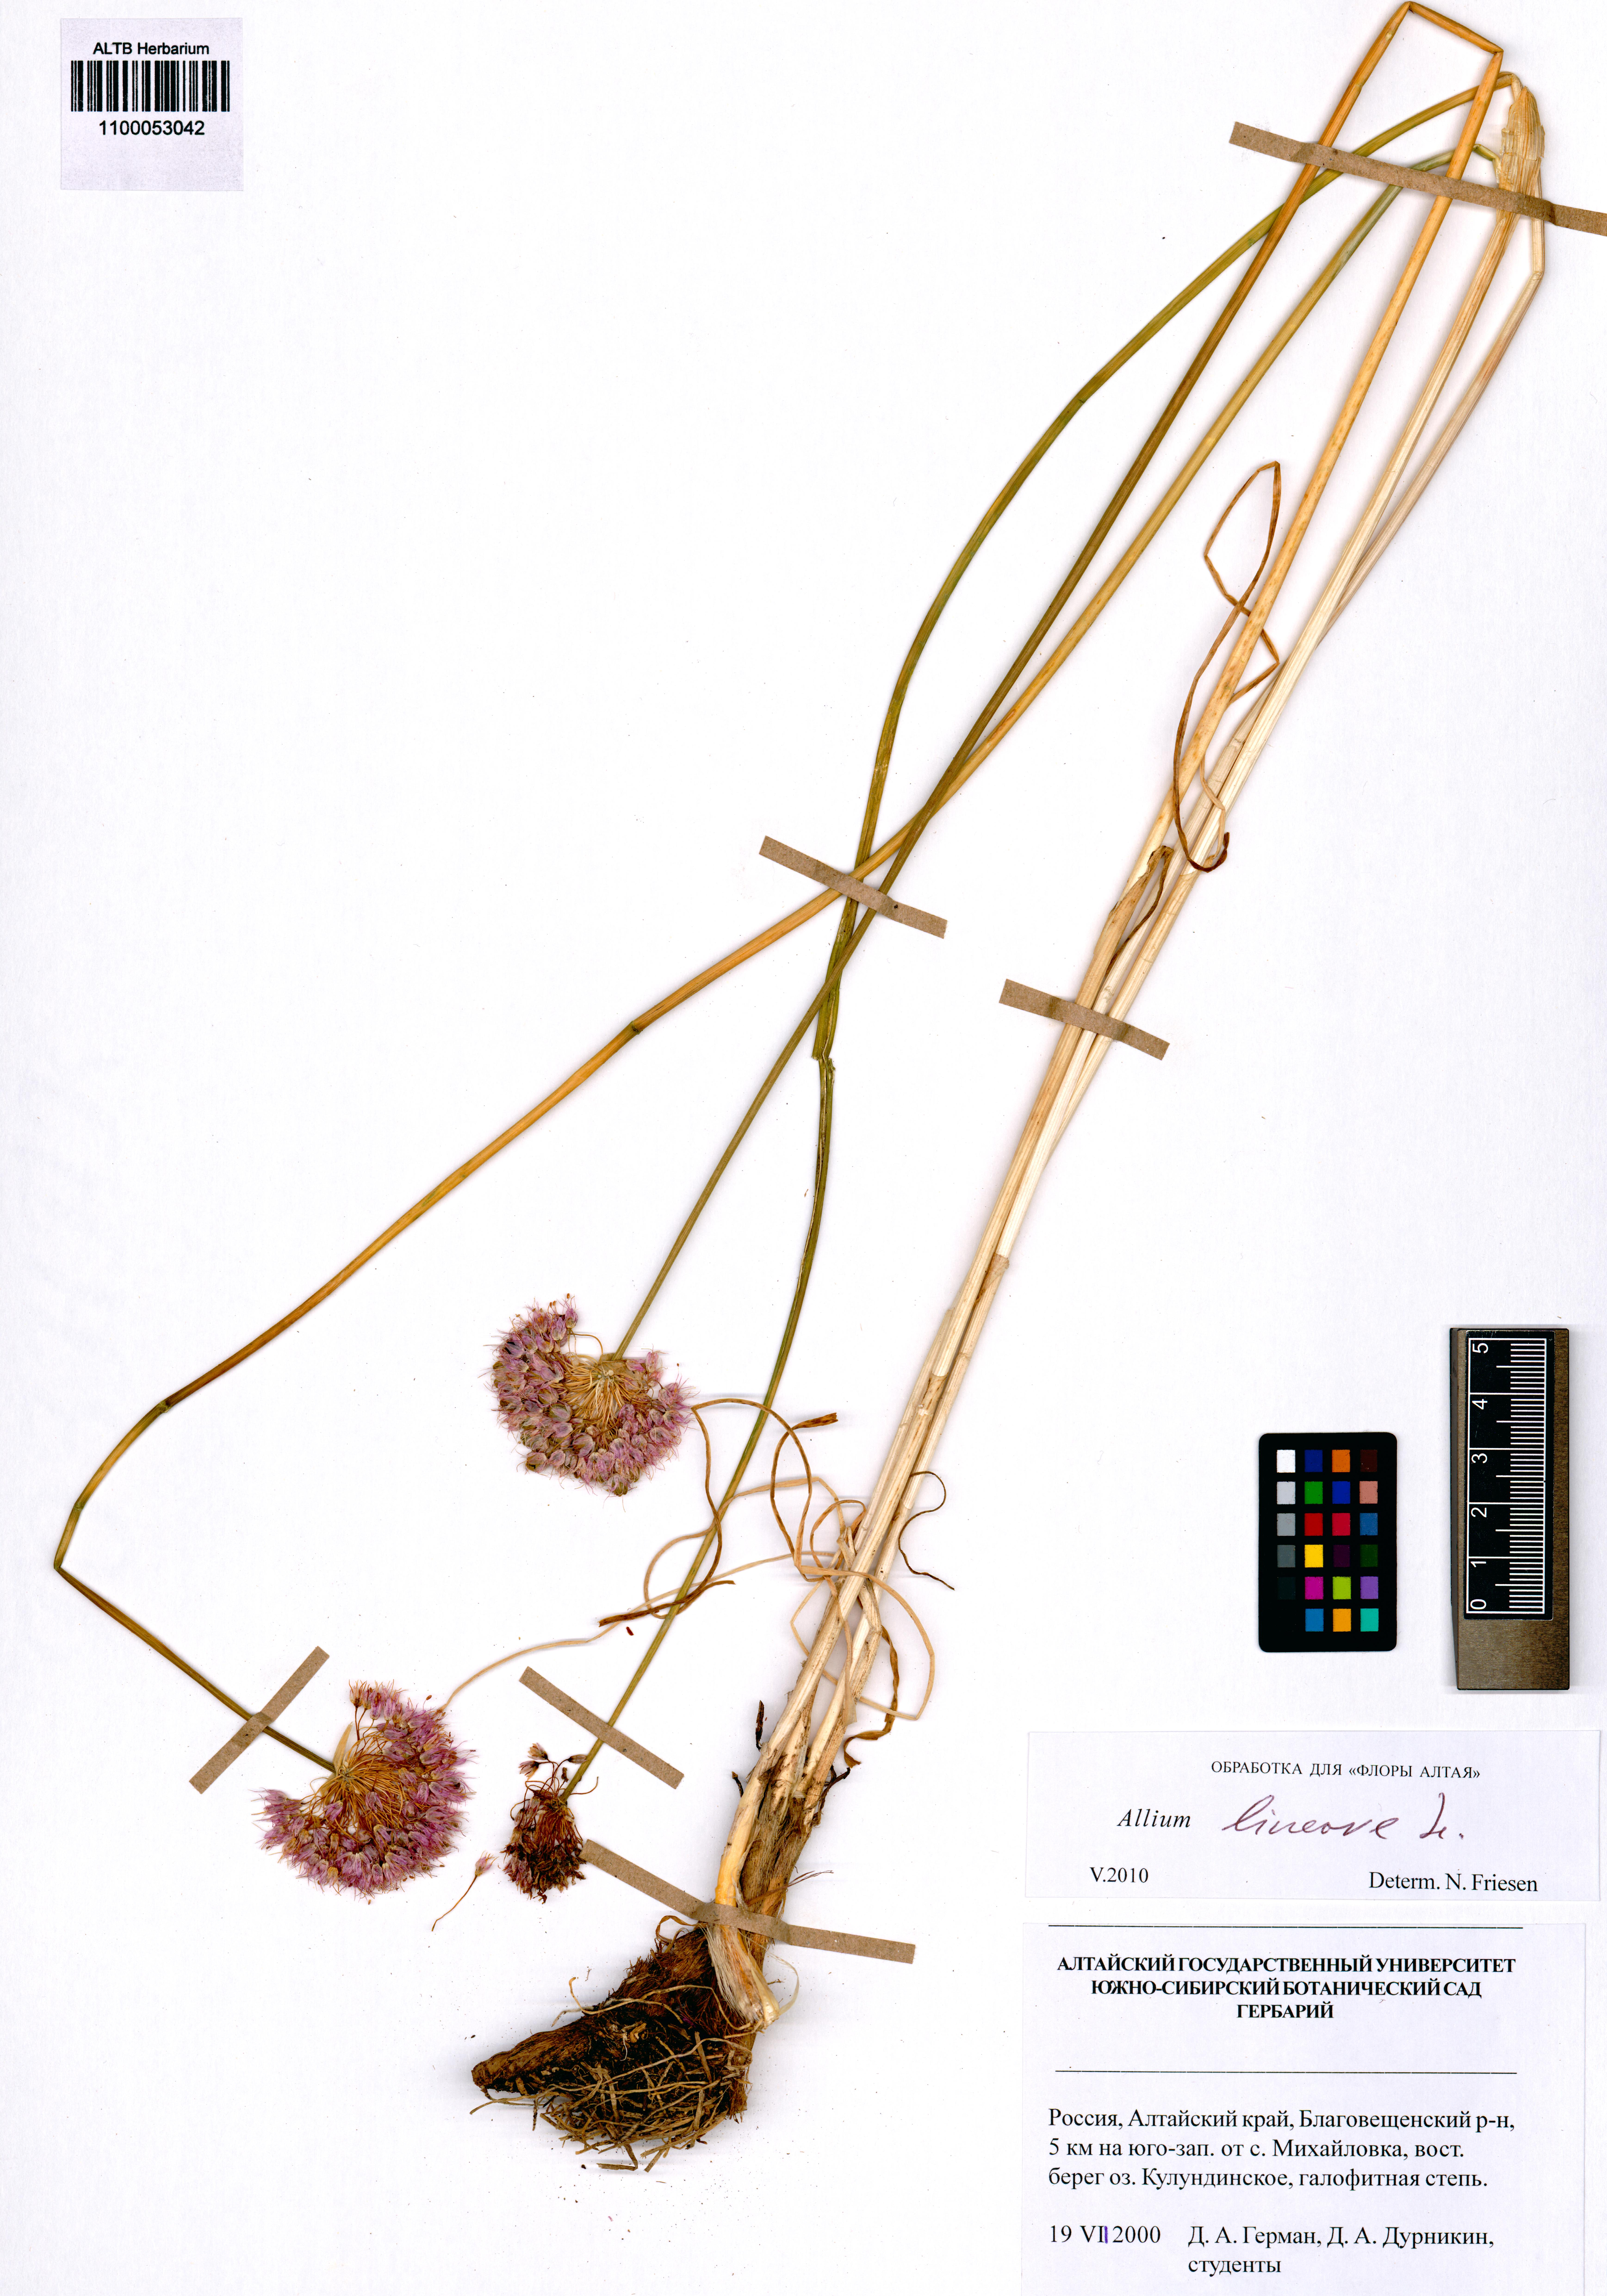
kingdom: Plantae
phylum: Tracheophyta
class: Liliopsida
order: Asparagales
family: Amaryllidaceae
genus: Allium
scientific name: Allium lineare
